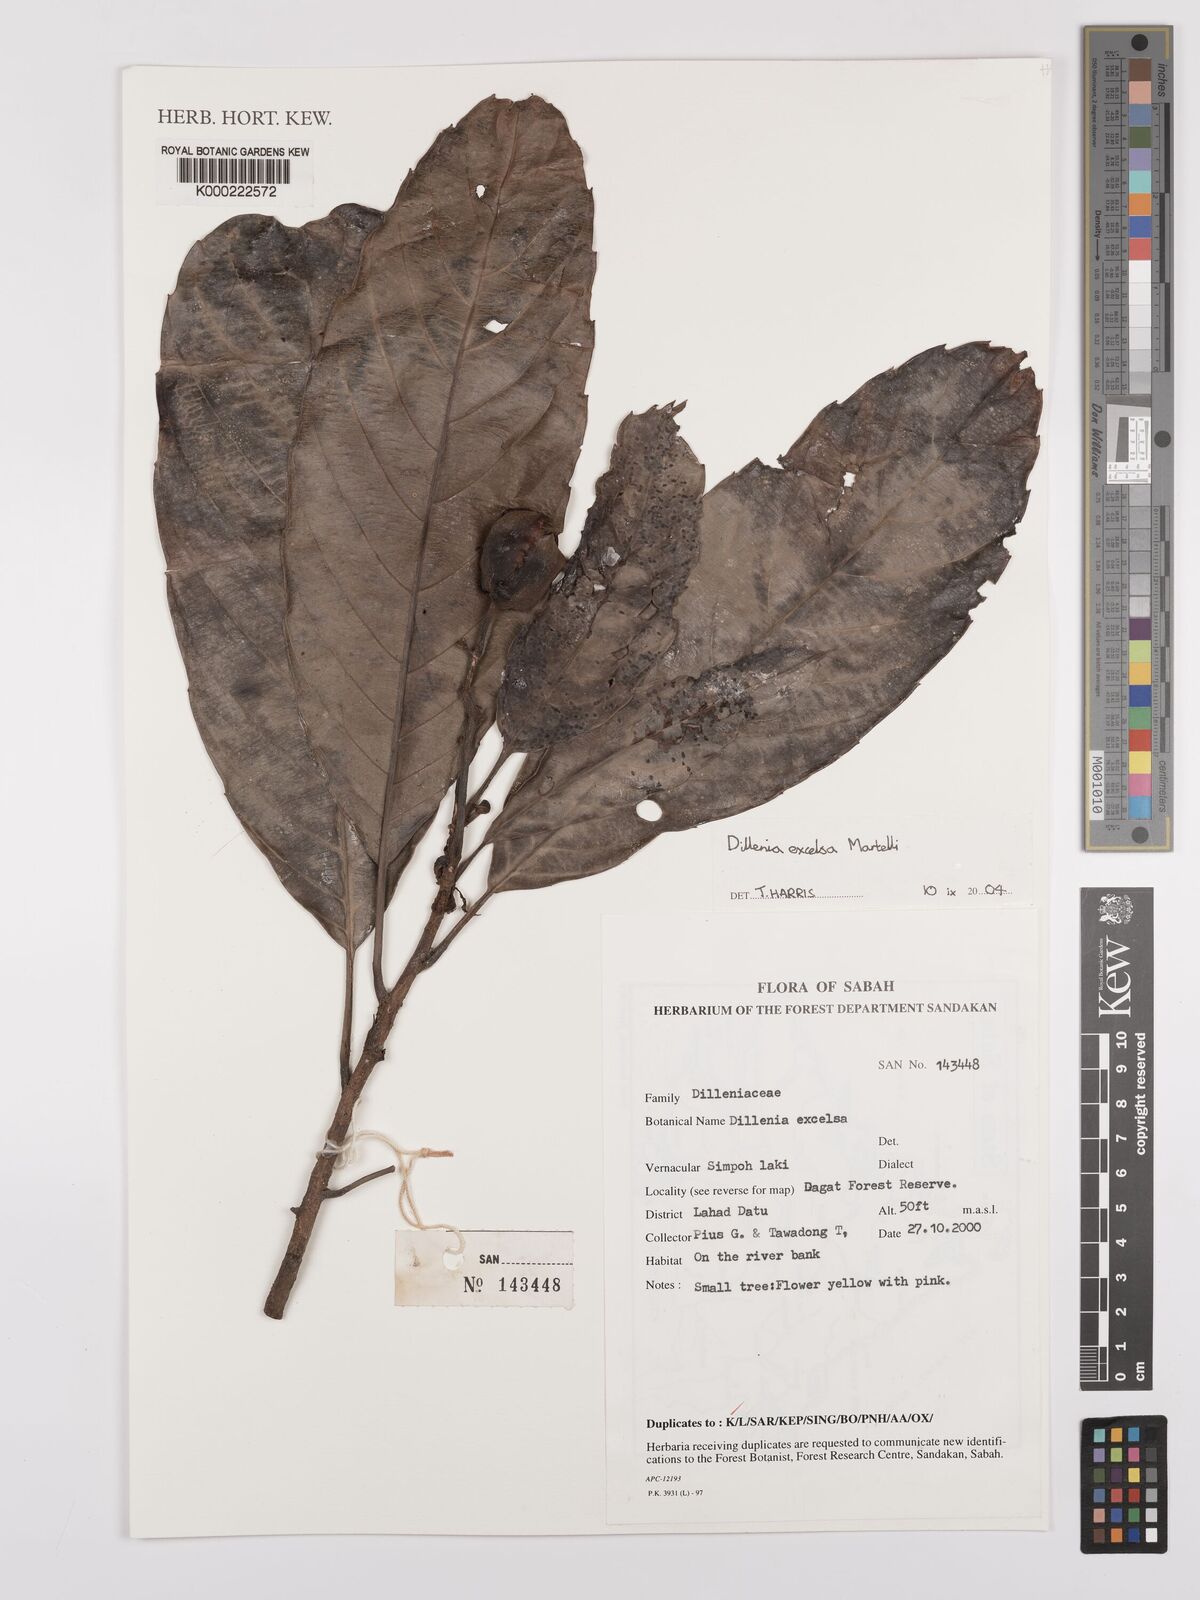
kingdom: Plantae
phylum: Tracheophyta
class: Magnoliopsida
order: Dilleniales
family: Dilleniaceae
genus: Dillenia
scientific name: Dillenia
